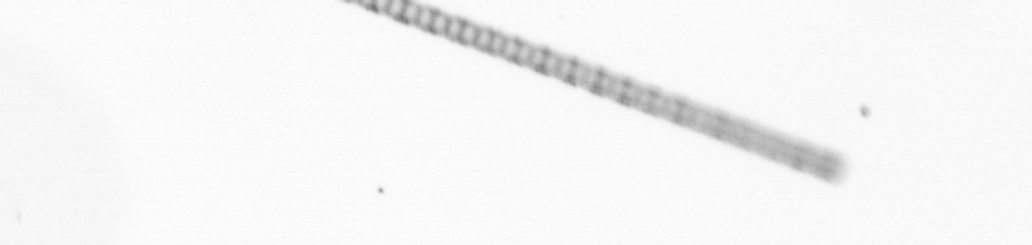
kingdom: Chromista
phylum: Ochrophyta
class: Bacillariophyceae
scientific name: Bacillariophyceae
